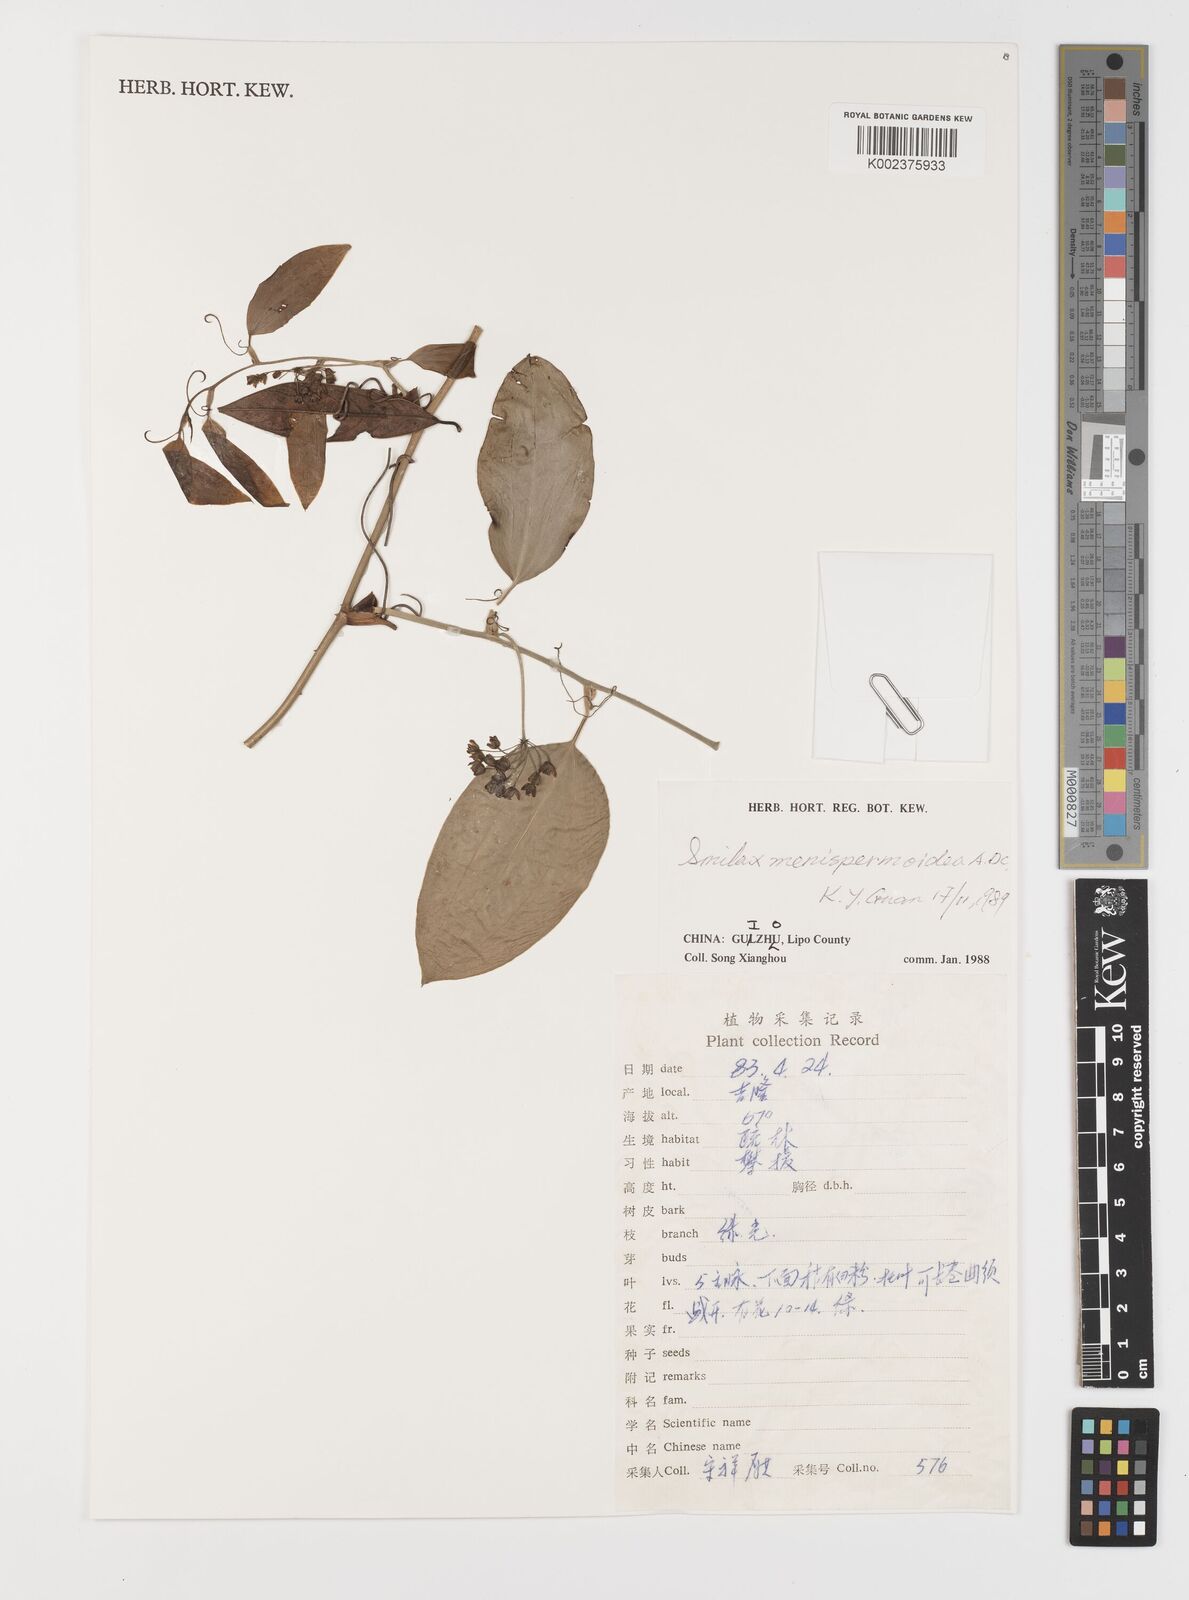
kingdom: Plantae
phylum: Tracheophyta
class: Liliopsida
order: Liliales
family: Smilacaceae
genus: Smilax
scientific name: Smilax menispermoidea
